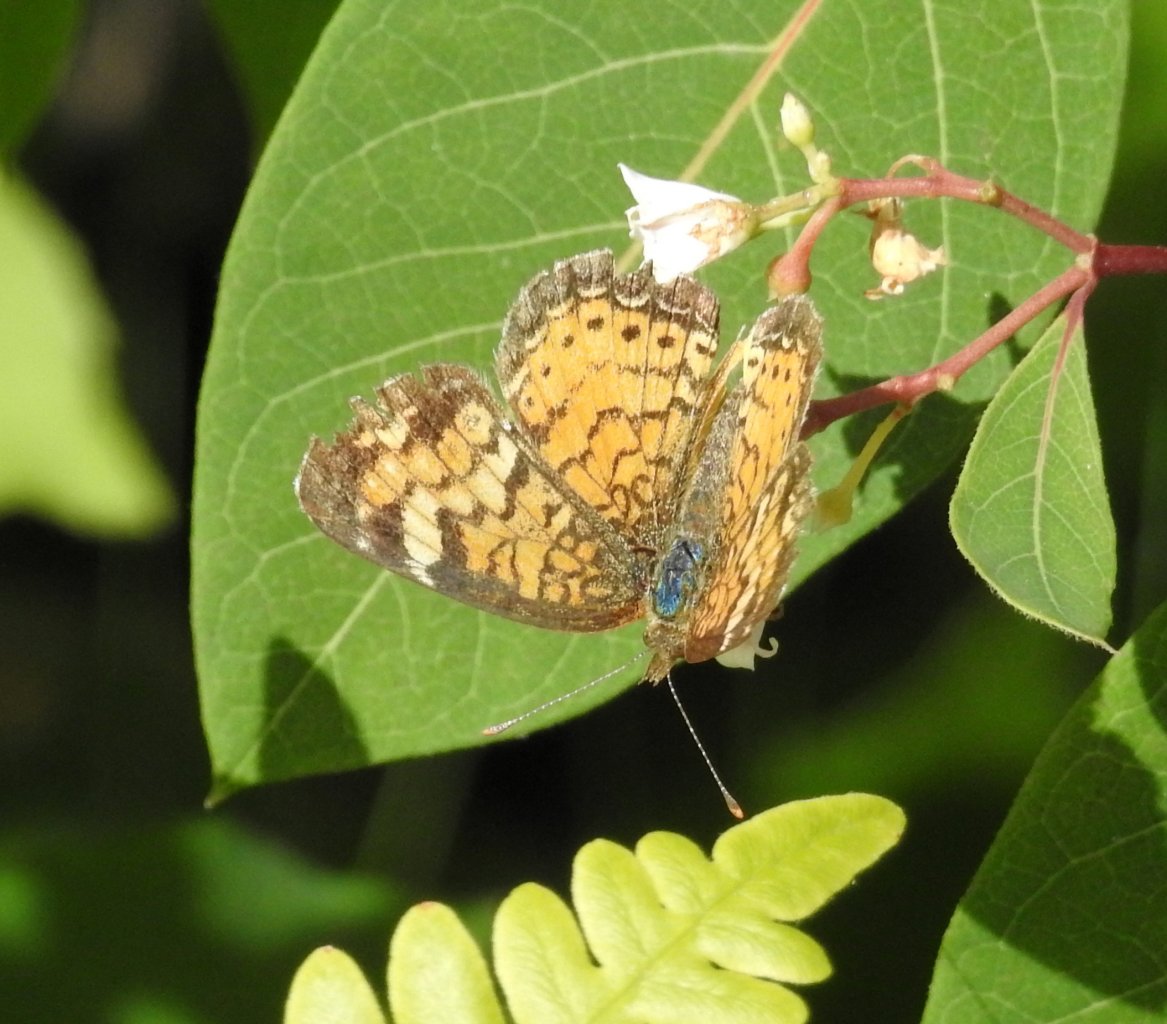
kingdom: Animalia
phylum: Arthropoda
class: Insecta
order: Lepidoptera
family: Nymphalidae
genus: Phyciodes
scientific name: Phyciodes
